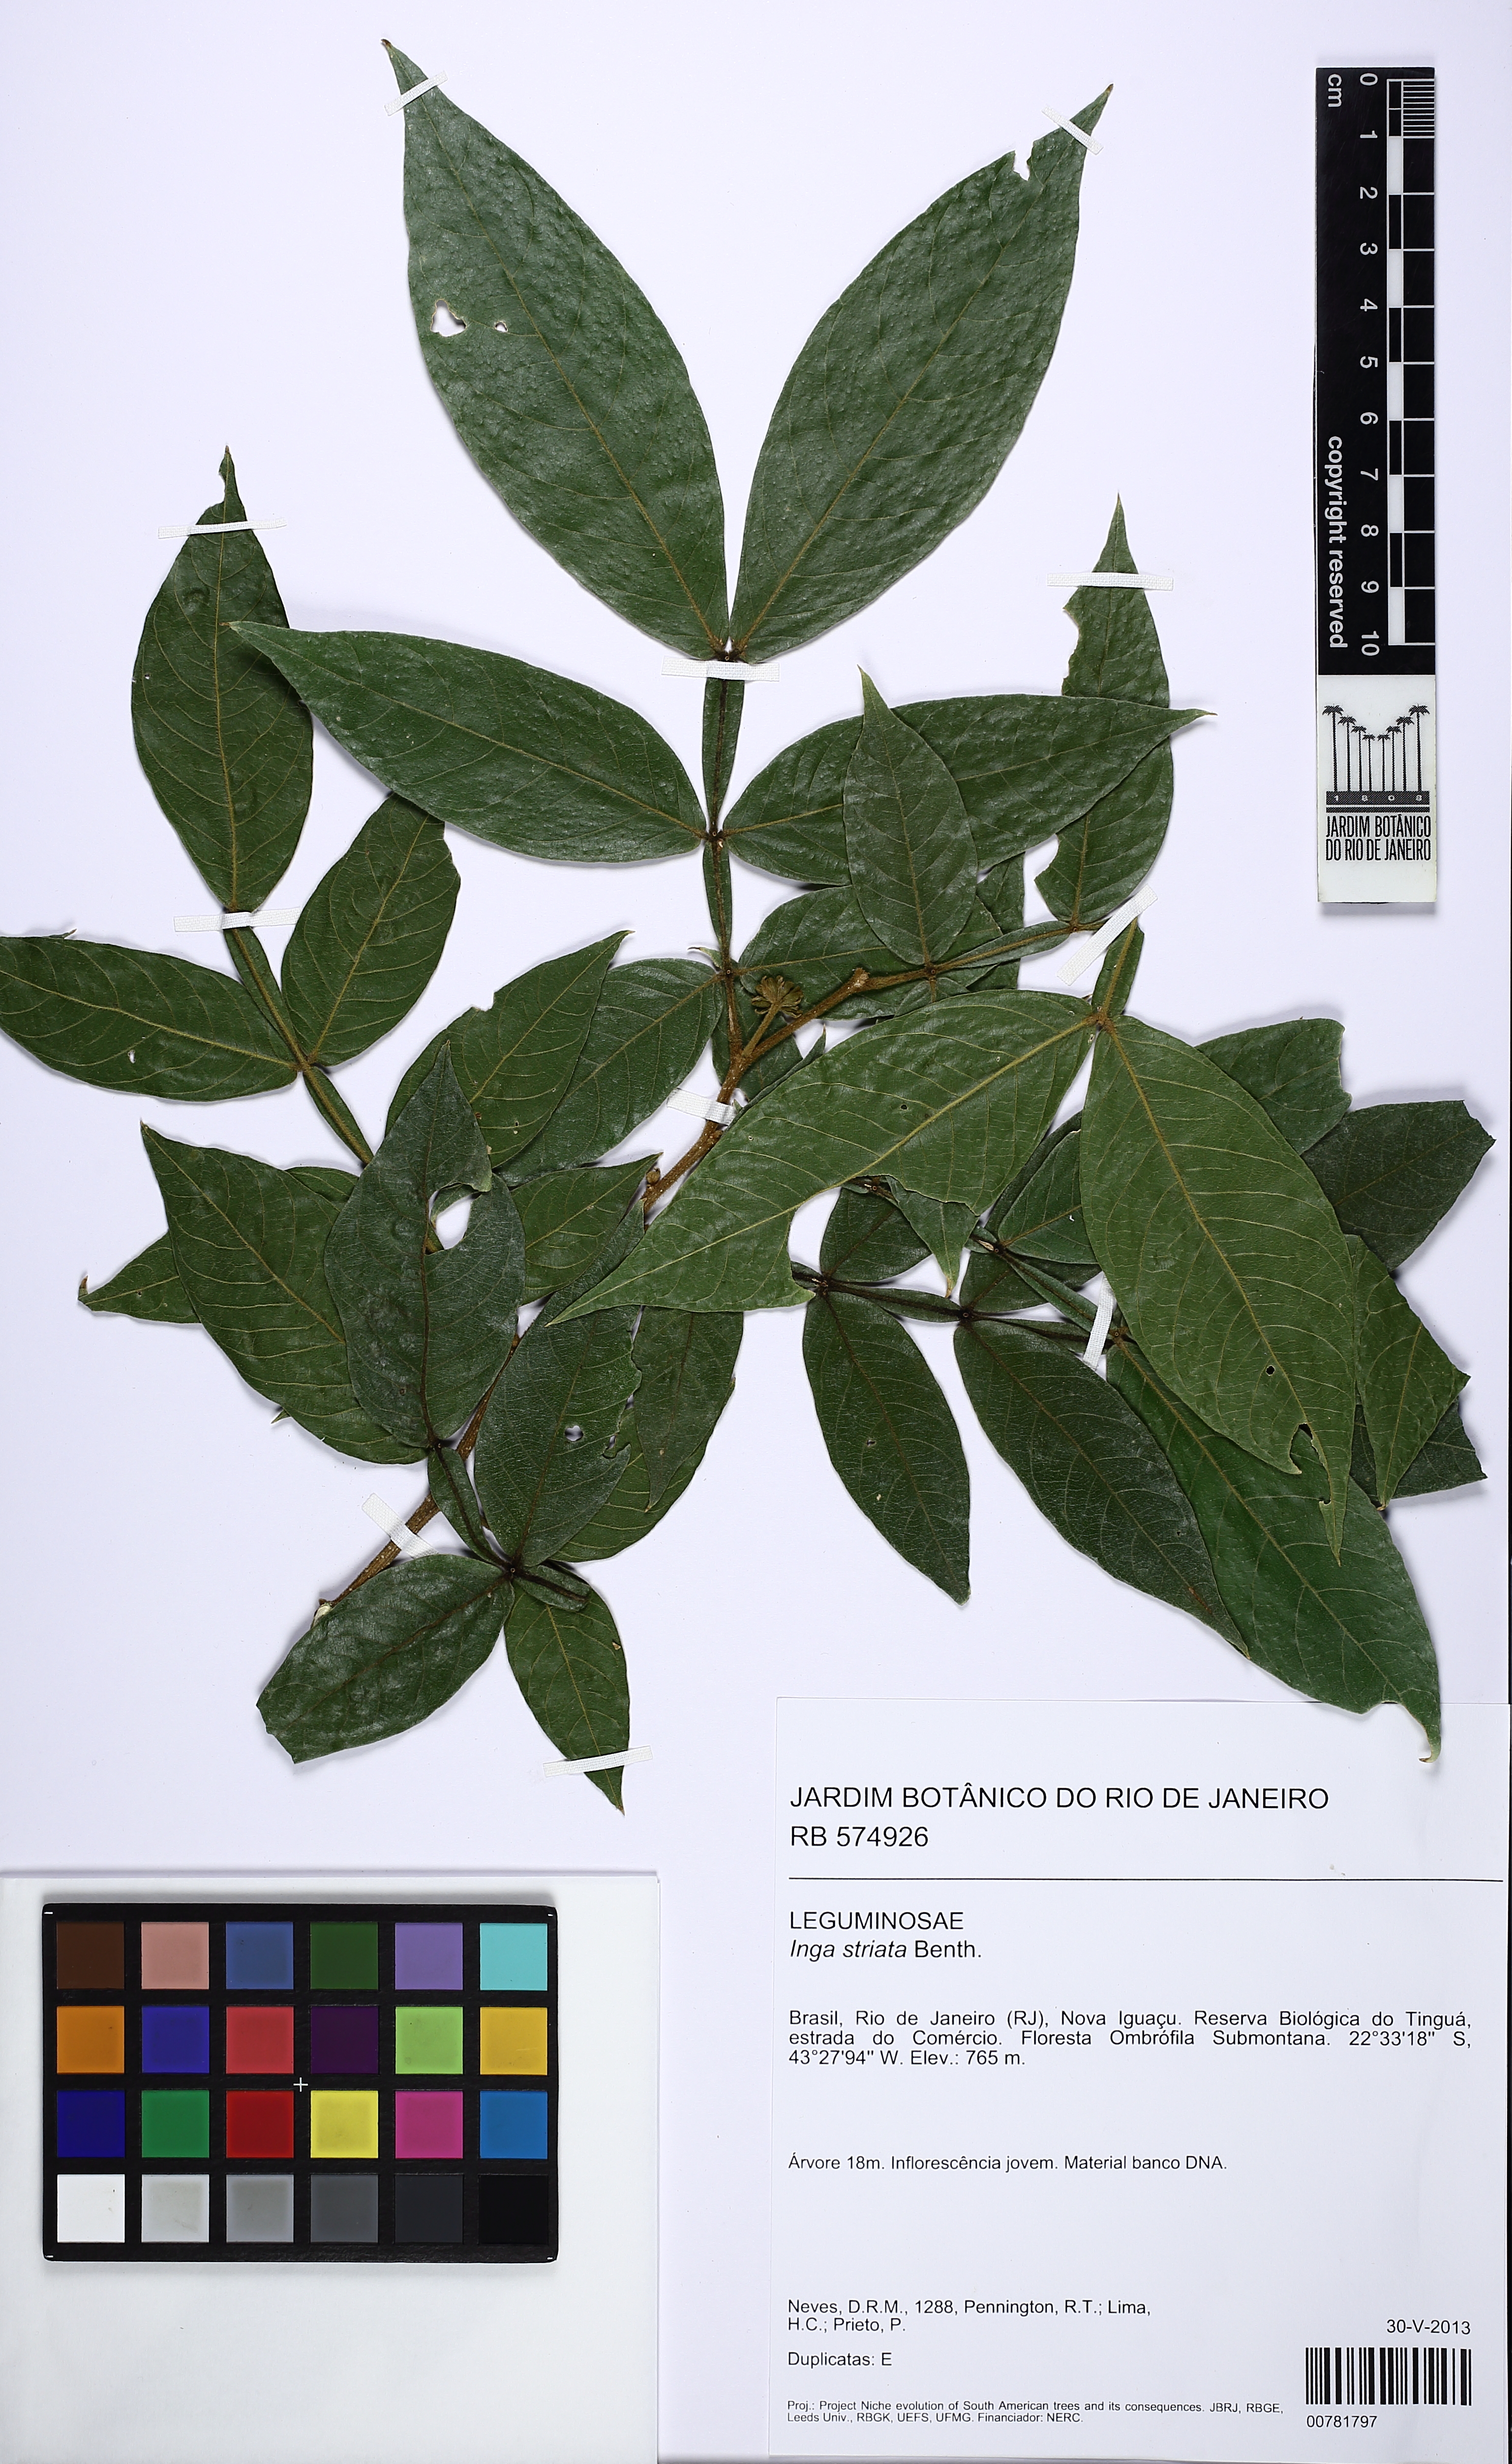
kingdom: Plantae
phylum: Tracheophyta
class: Magnoliopsida
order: Fabales
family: Fabaceae
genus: Inga
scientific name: Inga mendoncaei
